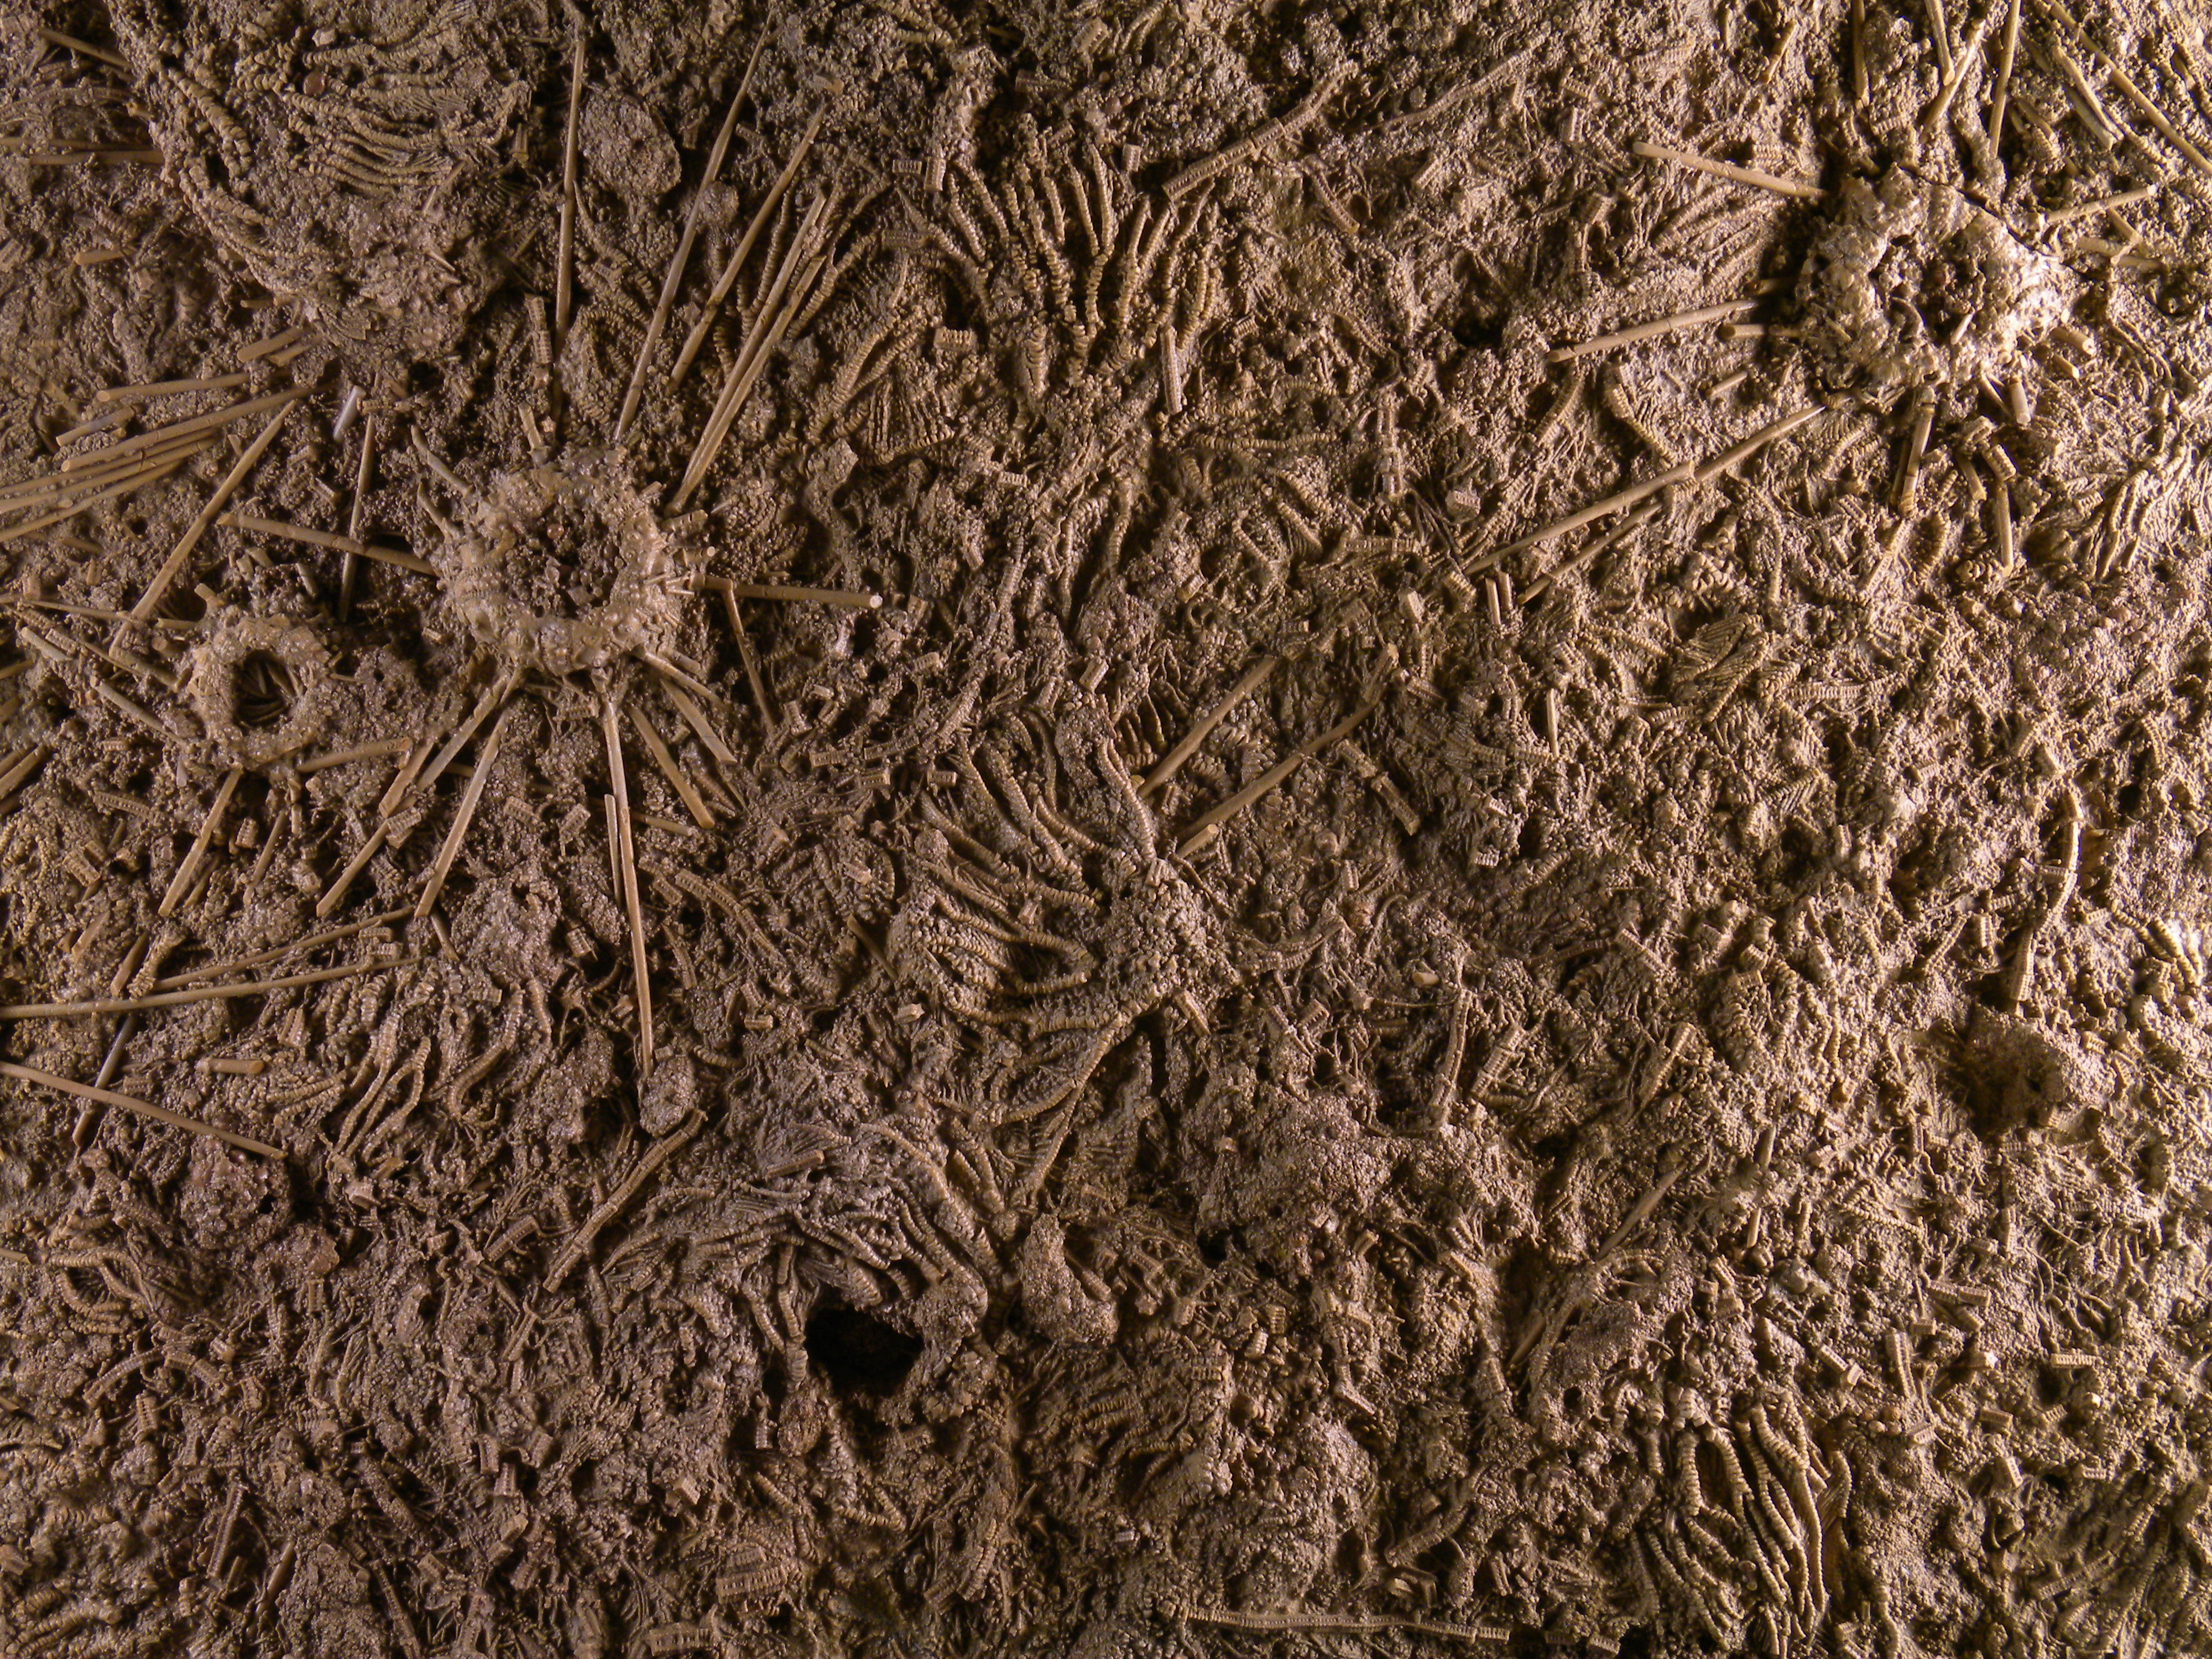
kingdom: Animalia
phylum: Echinodermata
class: Echinoidea
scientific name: Echinoidea
